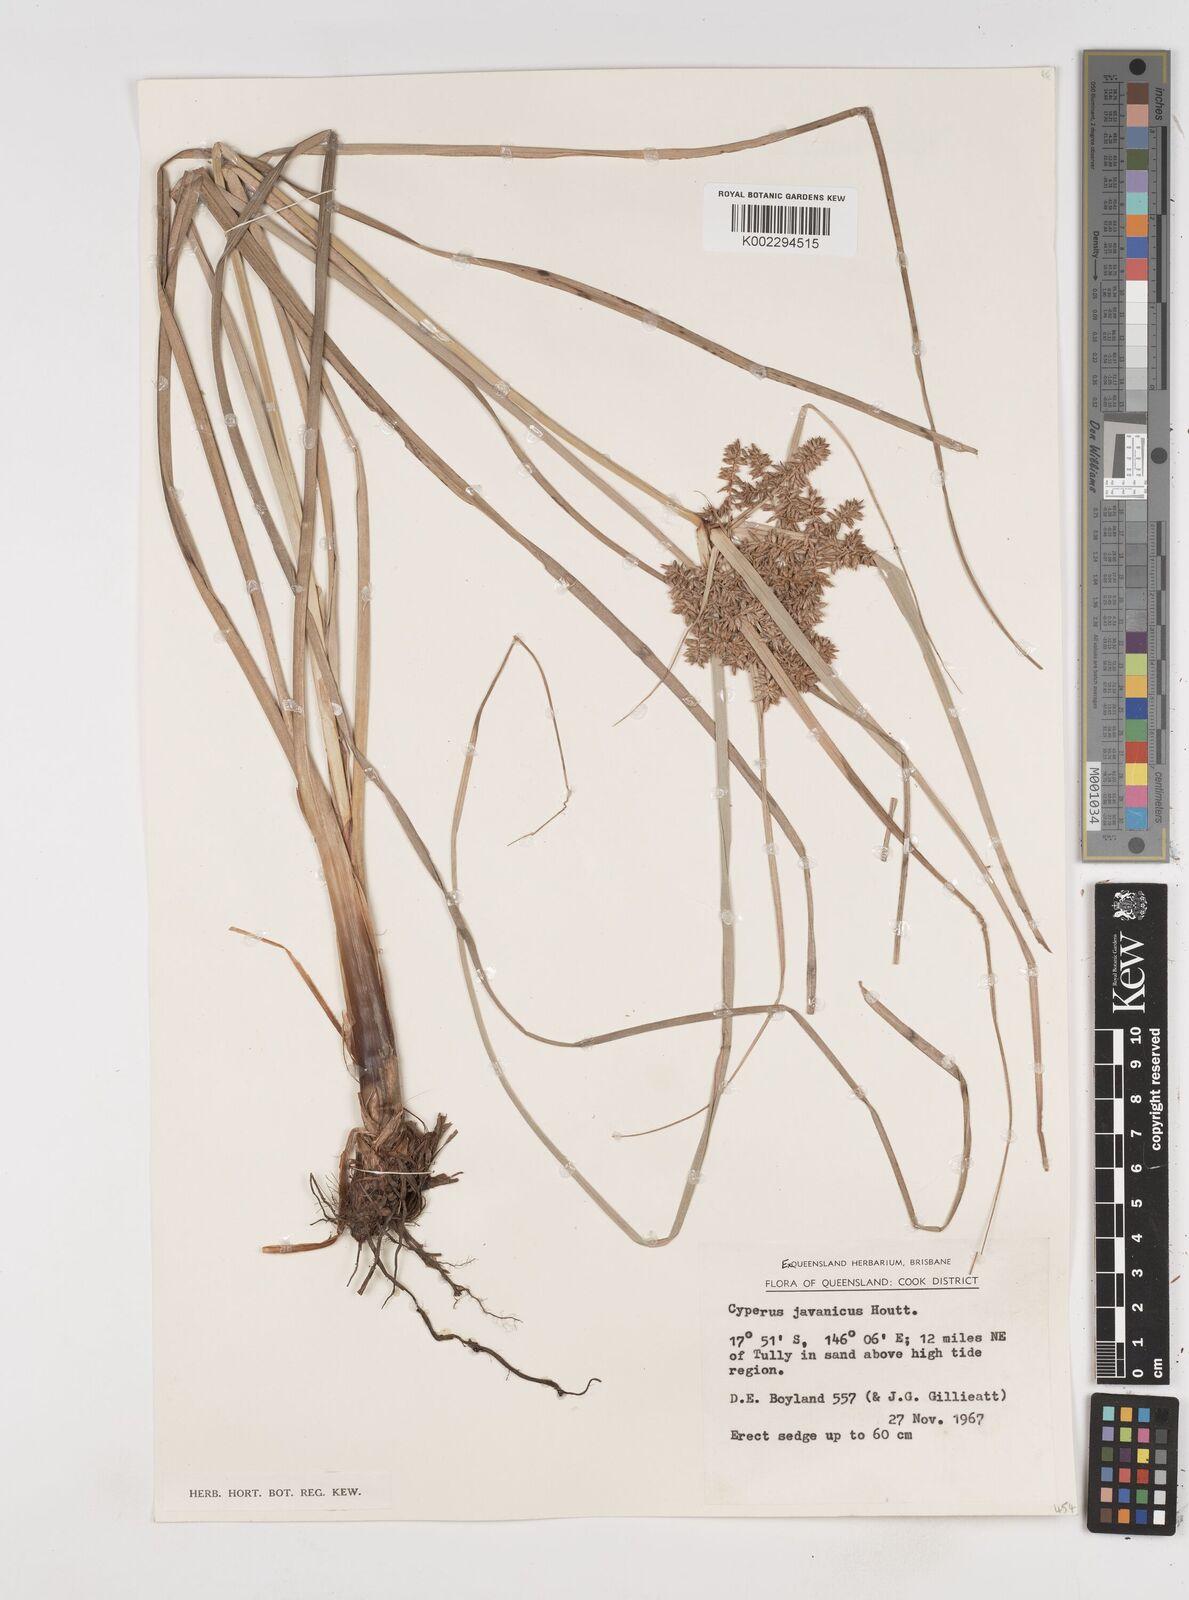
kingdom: Plantae
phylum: Tracheophyta
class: Liliopsida
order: Poales
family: Cyperaceae
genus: Cyperus
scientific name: Cyperus javanicus
